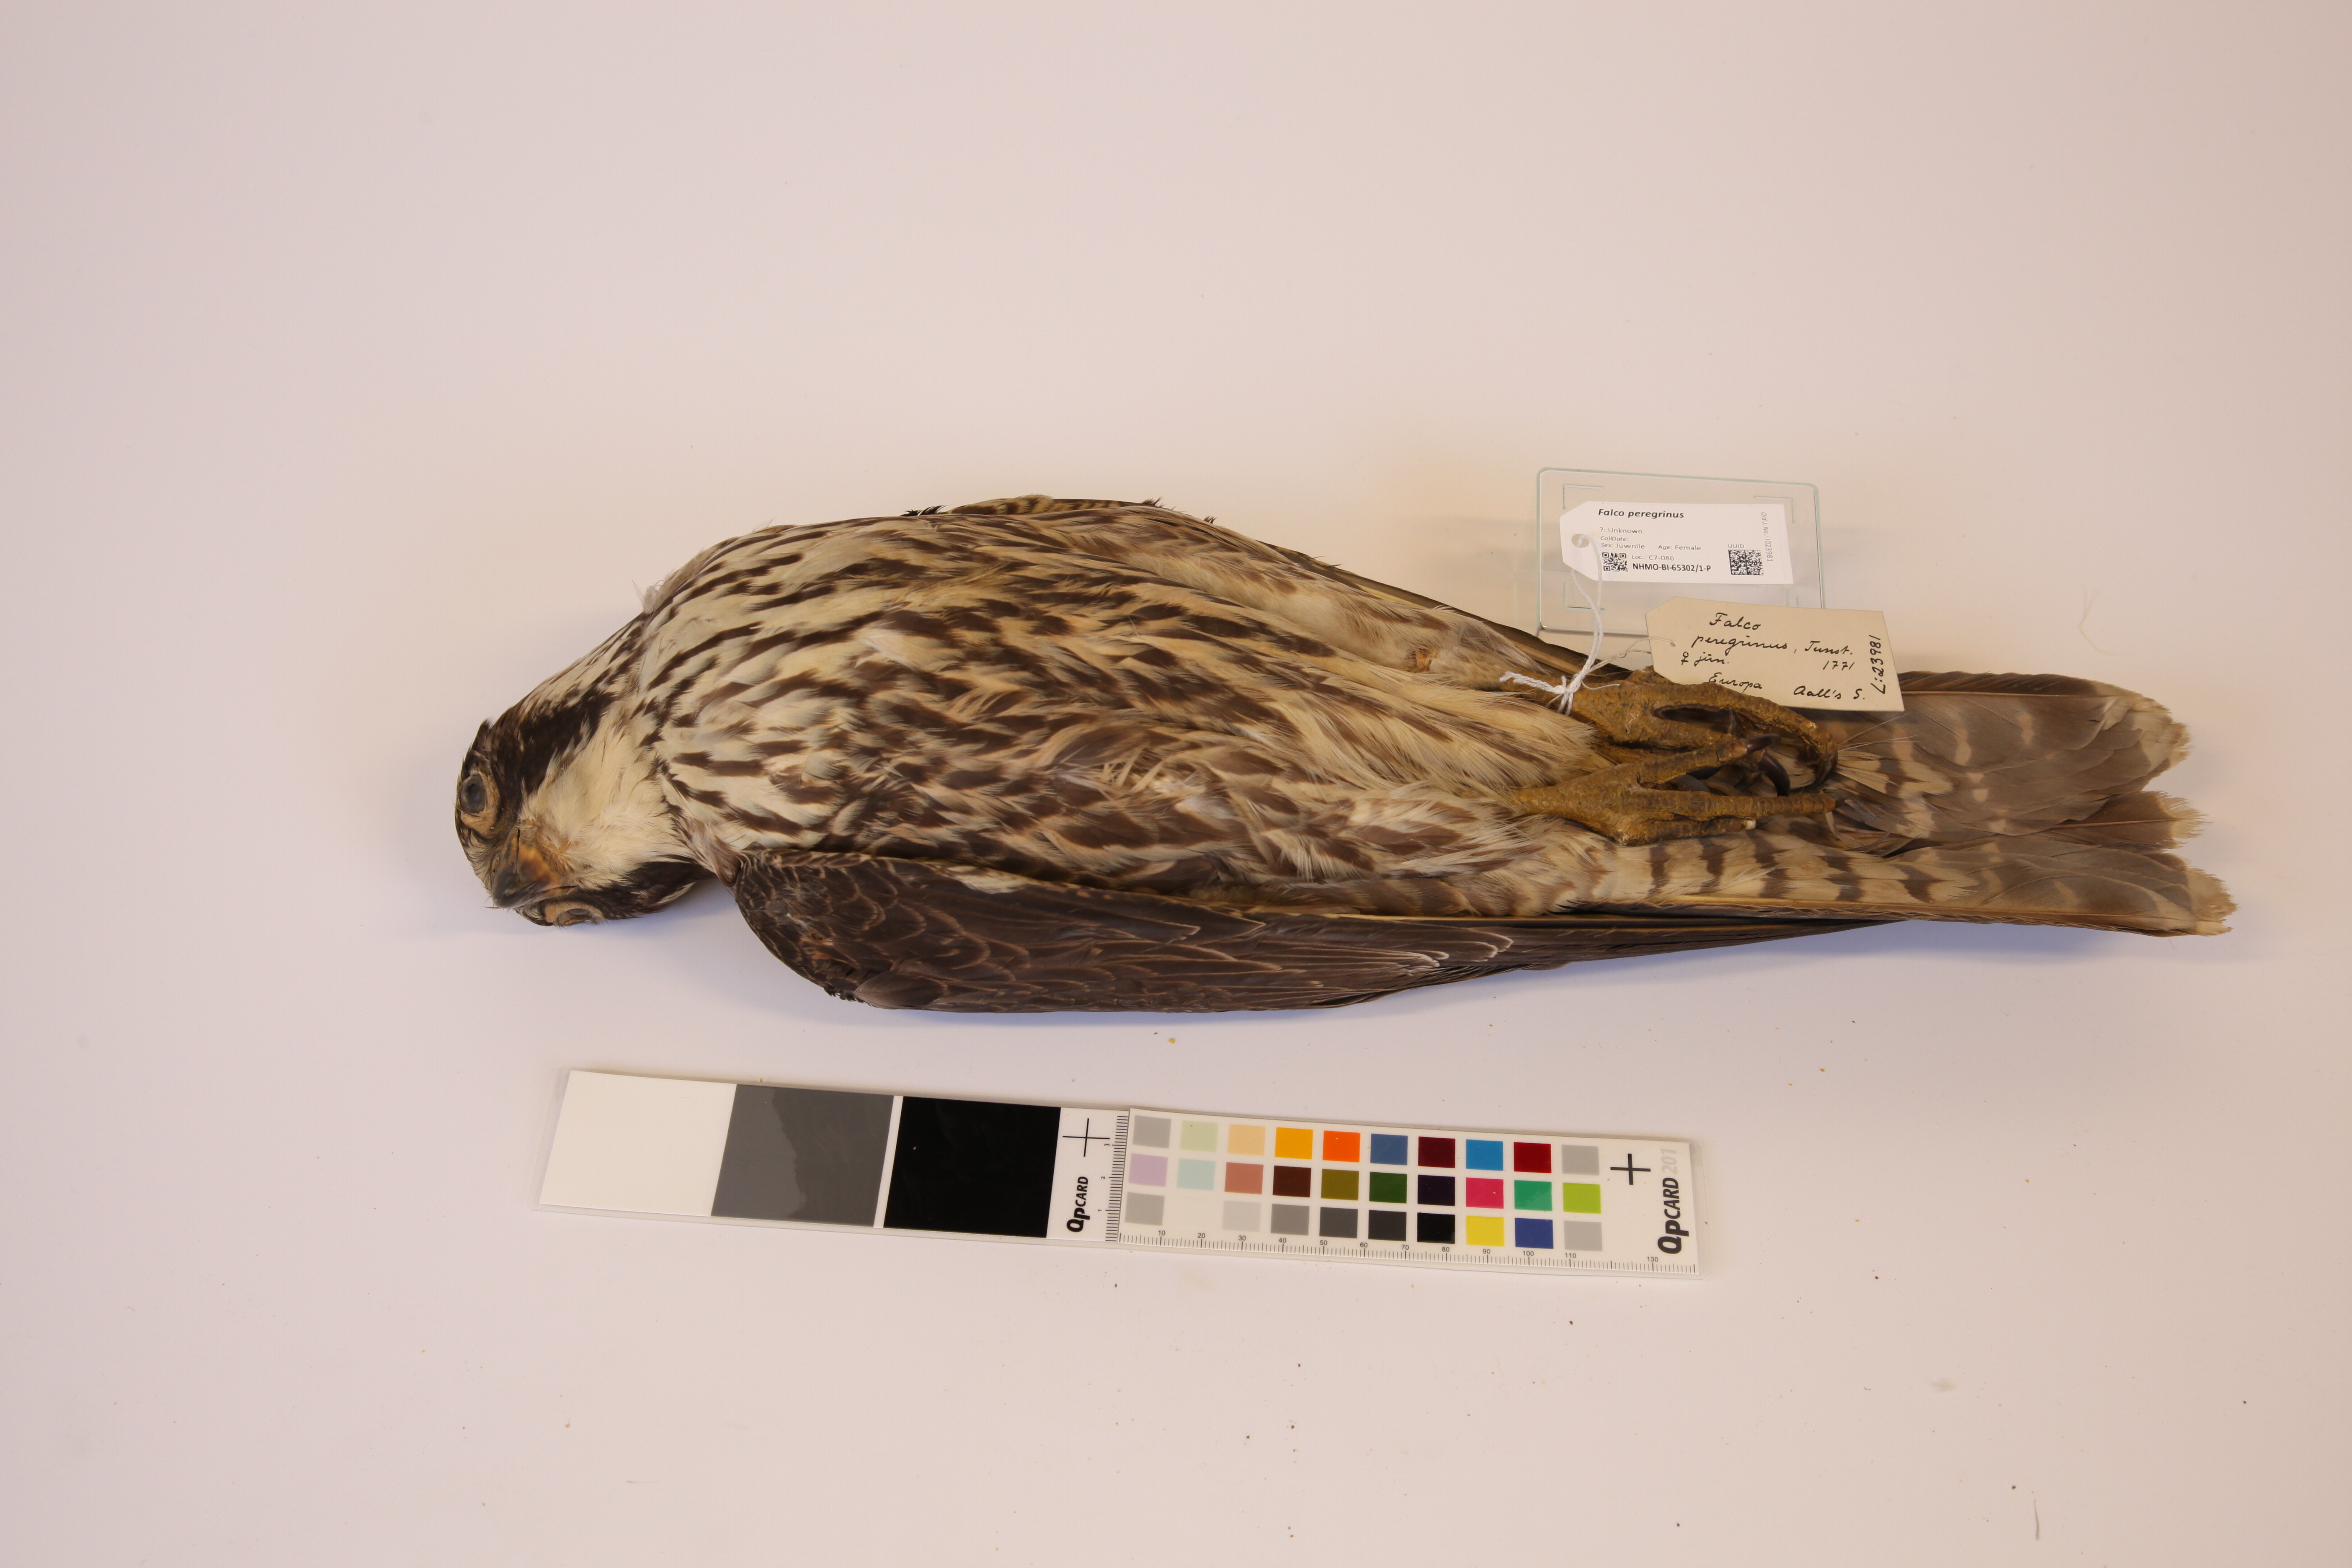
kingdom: Animalia
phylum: Chordata
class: Aves
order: Falconiformes
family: Falconidae
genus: Falco
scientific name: Falco peregrinus
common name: Peregrine falcon
